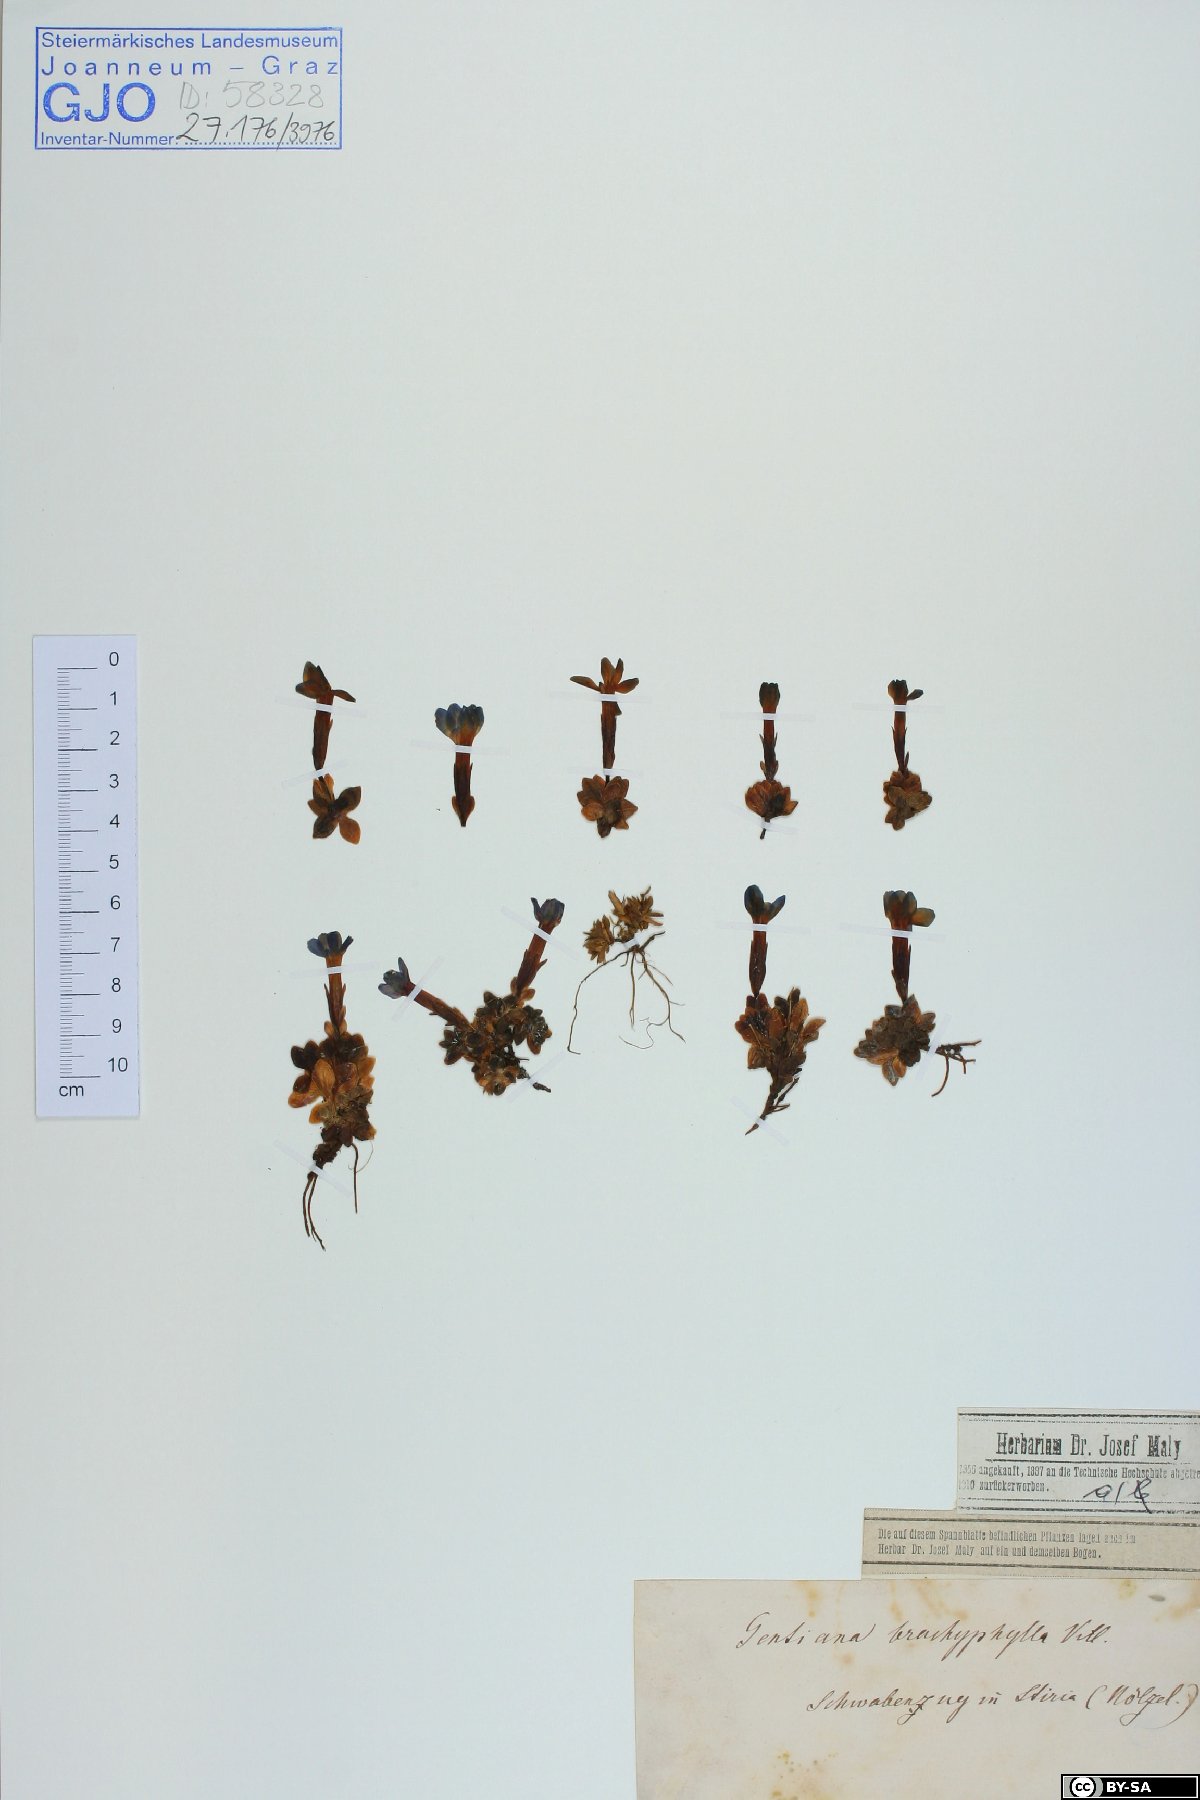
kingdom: Plantae
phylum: Tracheophyta
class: Magnoliopsida
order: Gentianales
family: Gentianaceae
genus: Gentiana
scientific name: Gentiana brachyphylla
